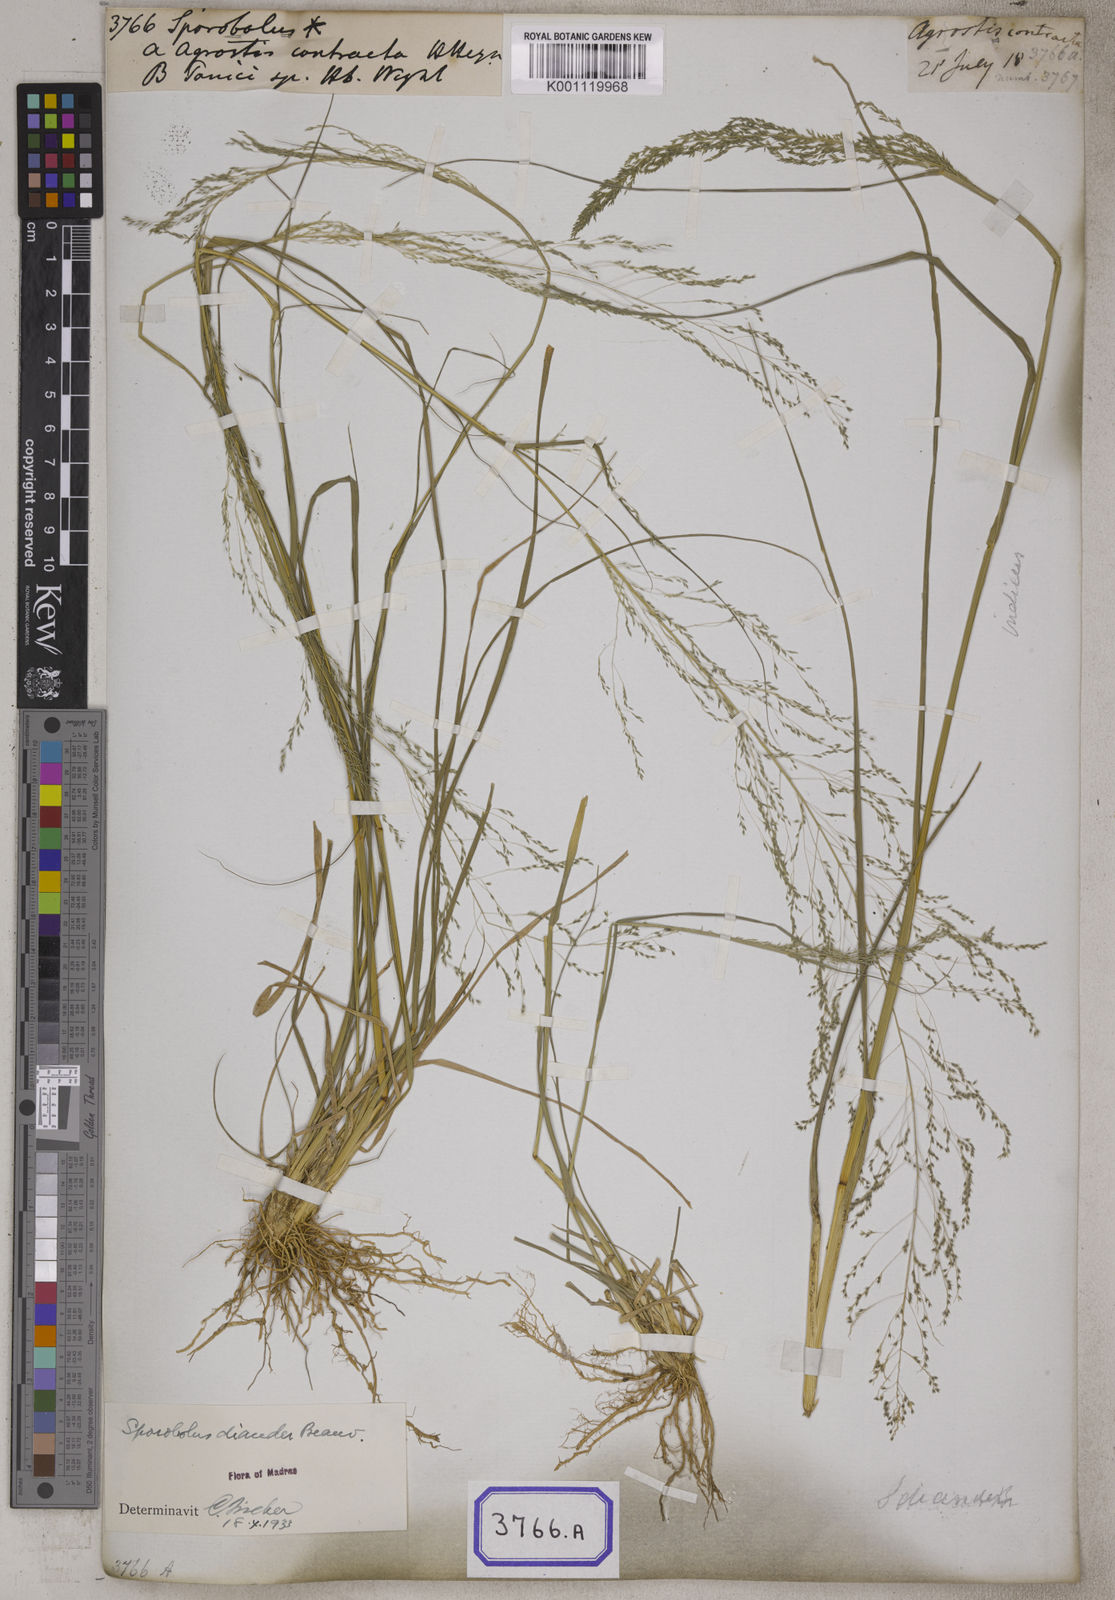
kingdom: Plantae
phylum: Tracheophyta
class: Liliopsida
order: Poales
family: Poaceae
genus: Sporobolus
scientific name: Sporobolus
